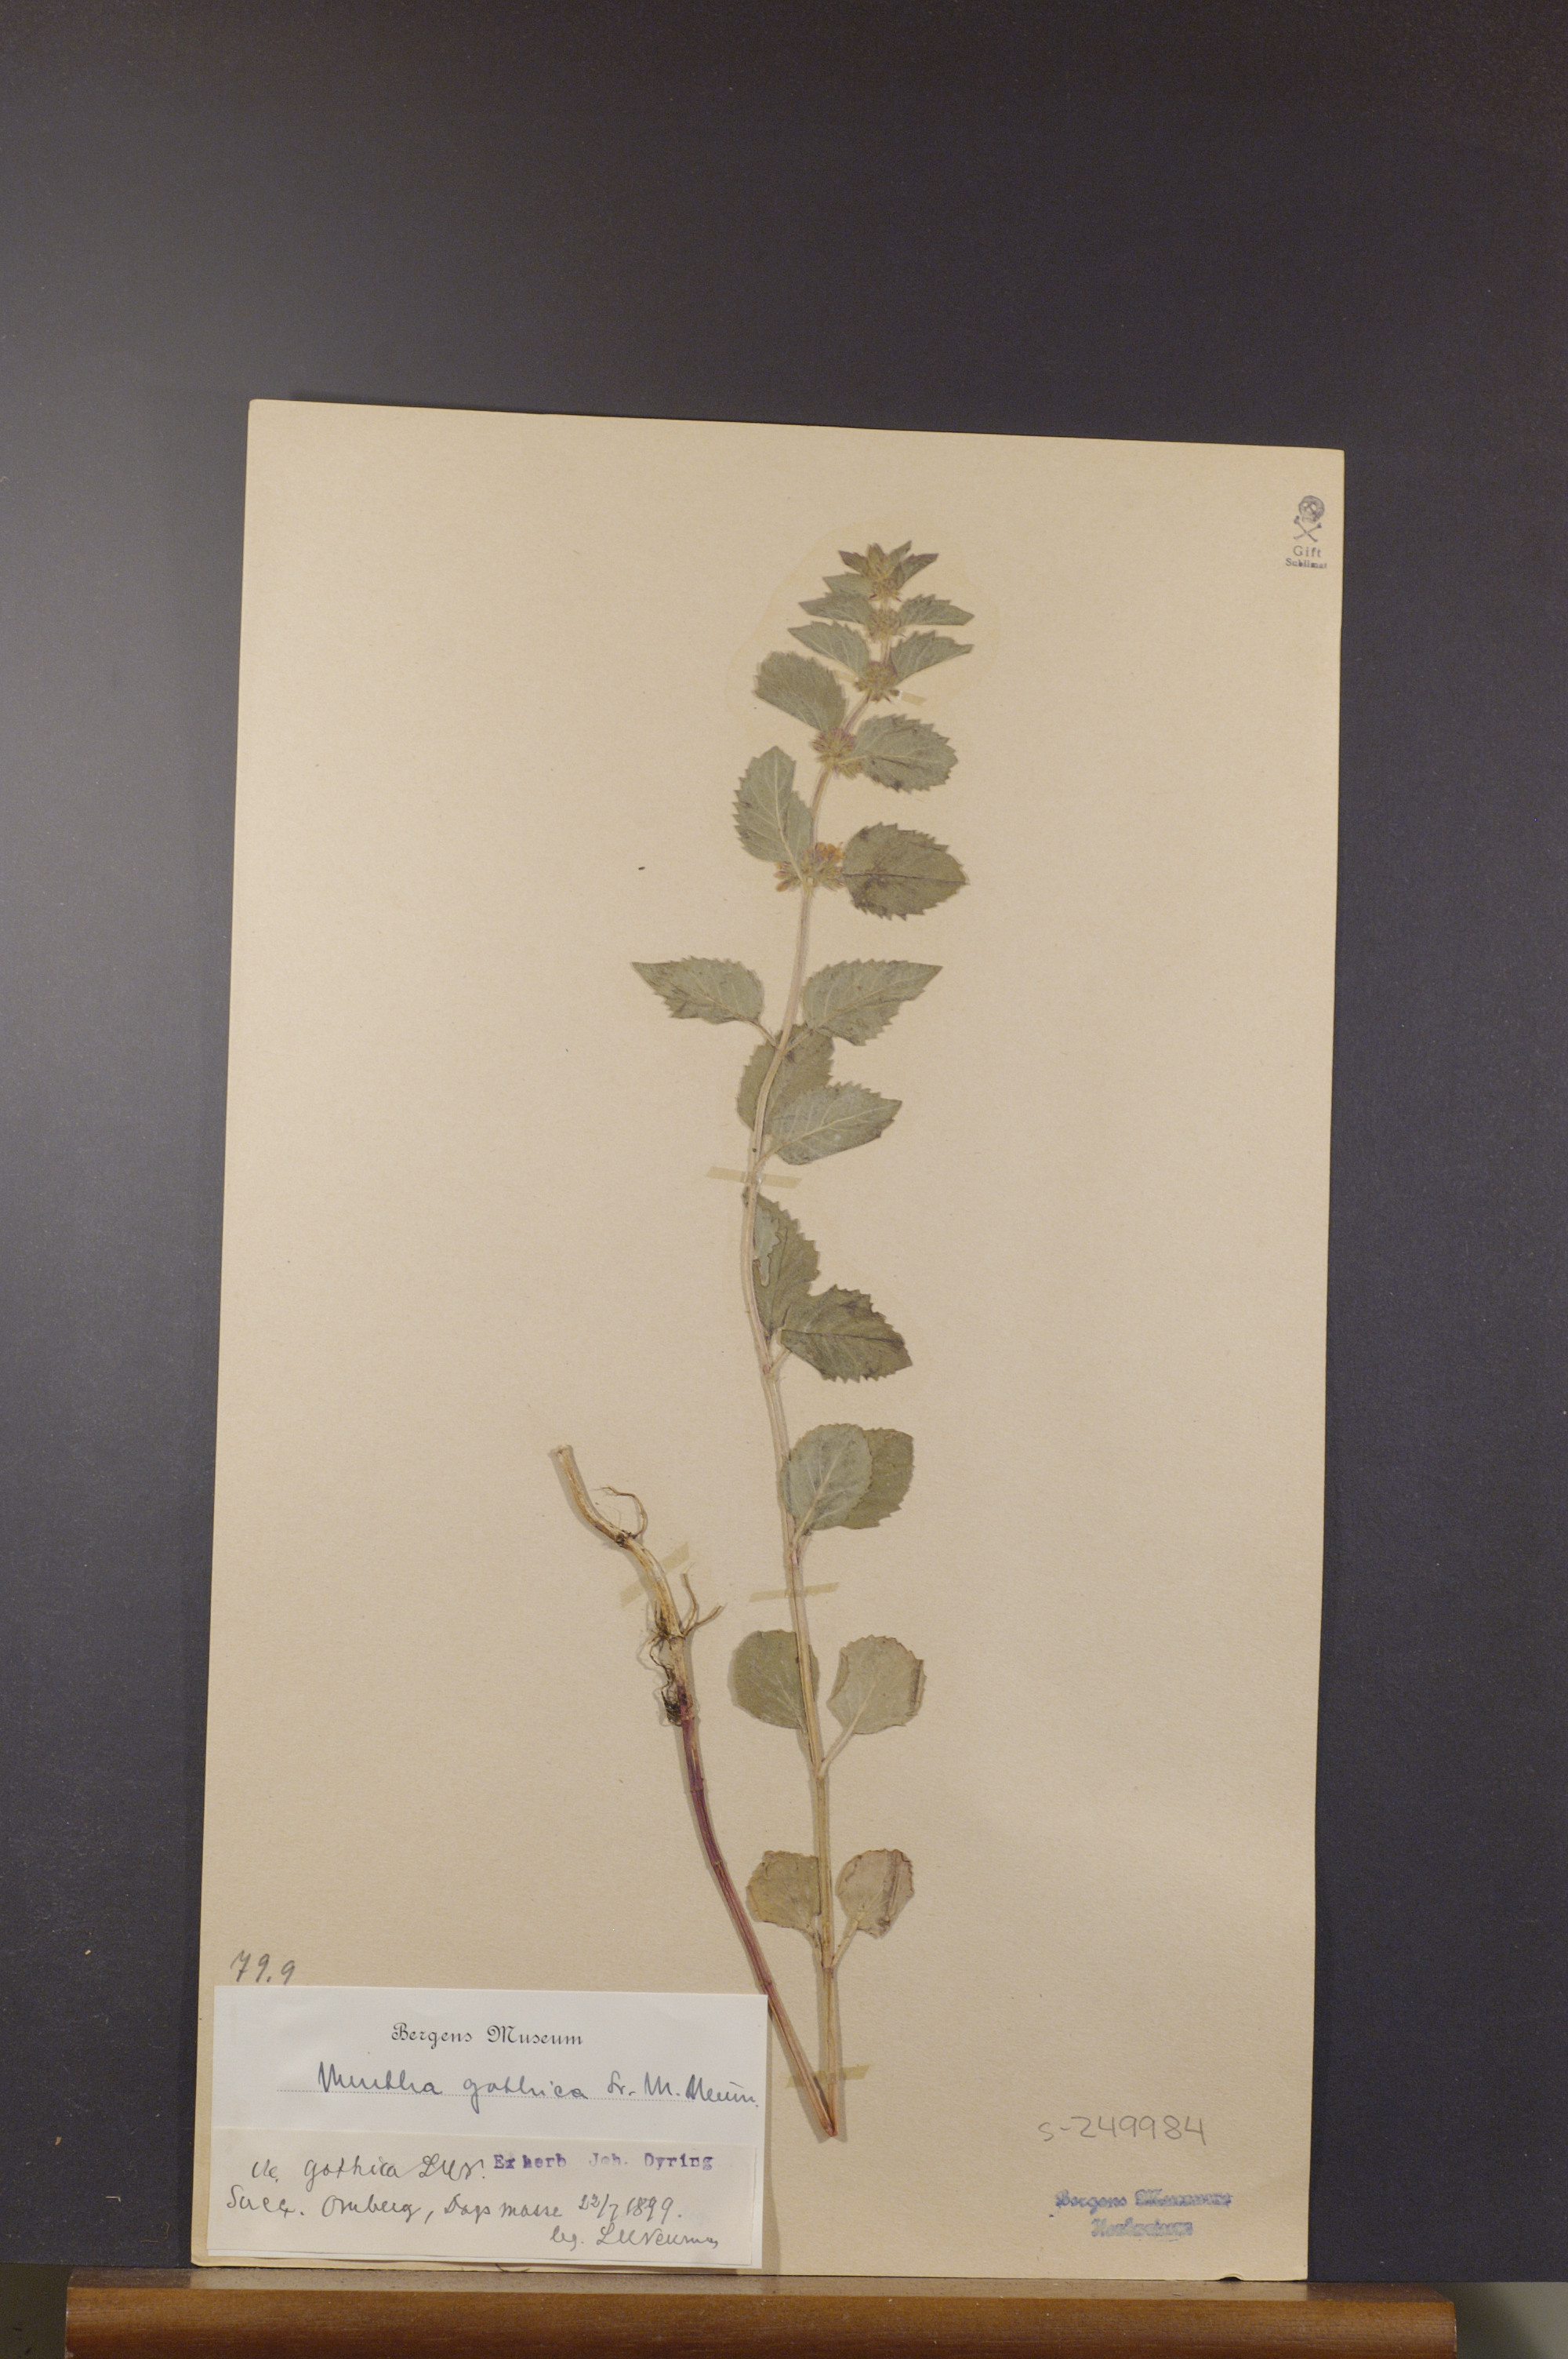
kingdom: Plantae
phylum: Tracheophyta
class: Magnoliopsida
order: Lamiales
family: Lamiaceae
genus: Mentha
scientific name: Mentha verticillata
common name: Mint
